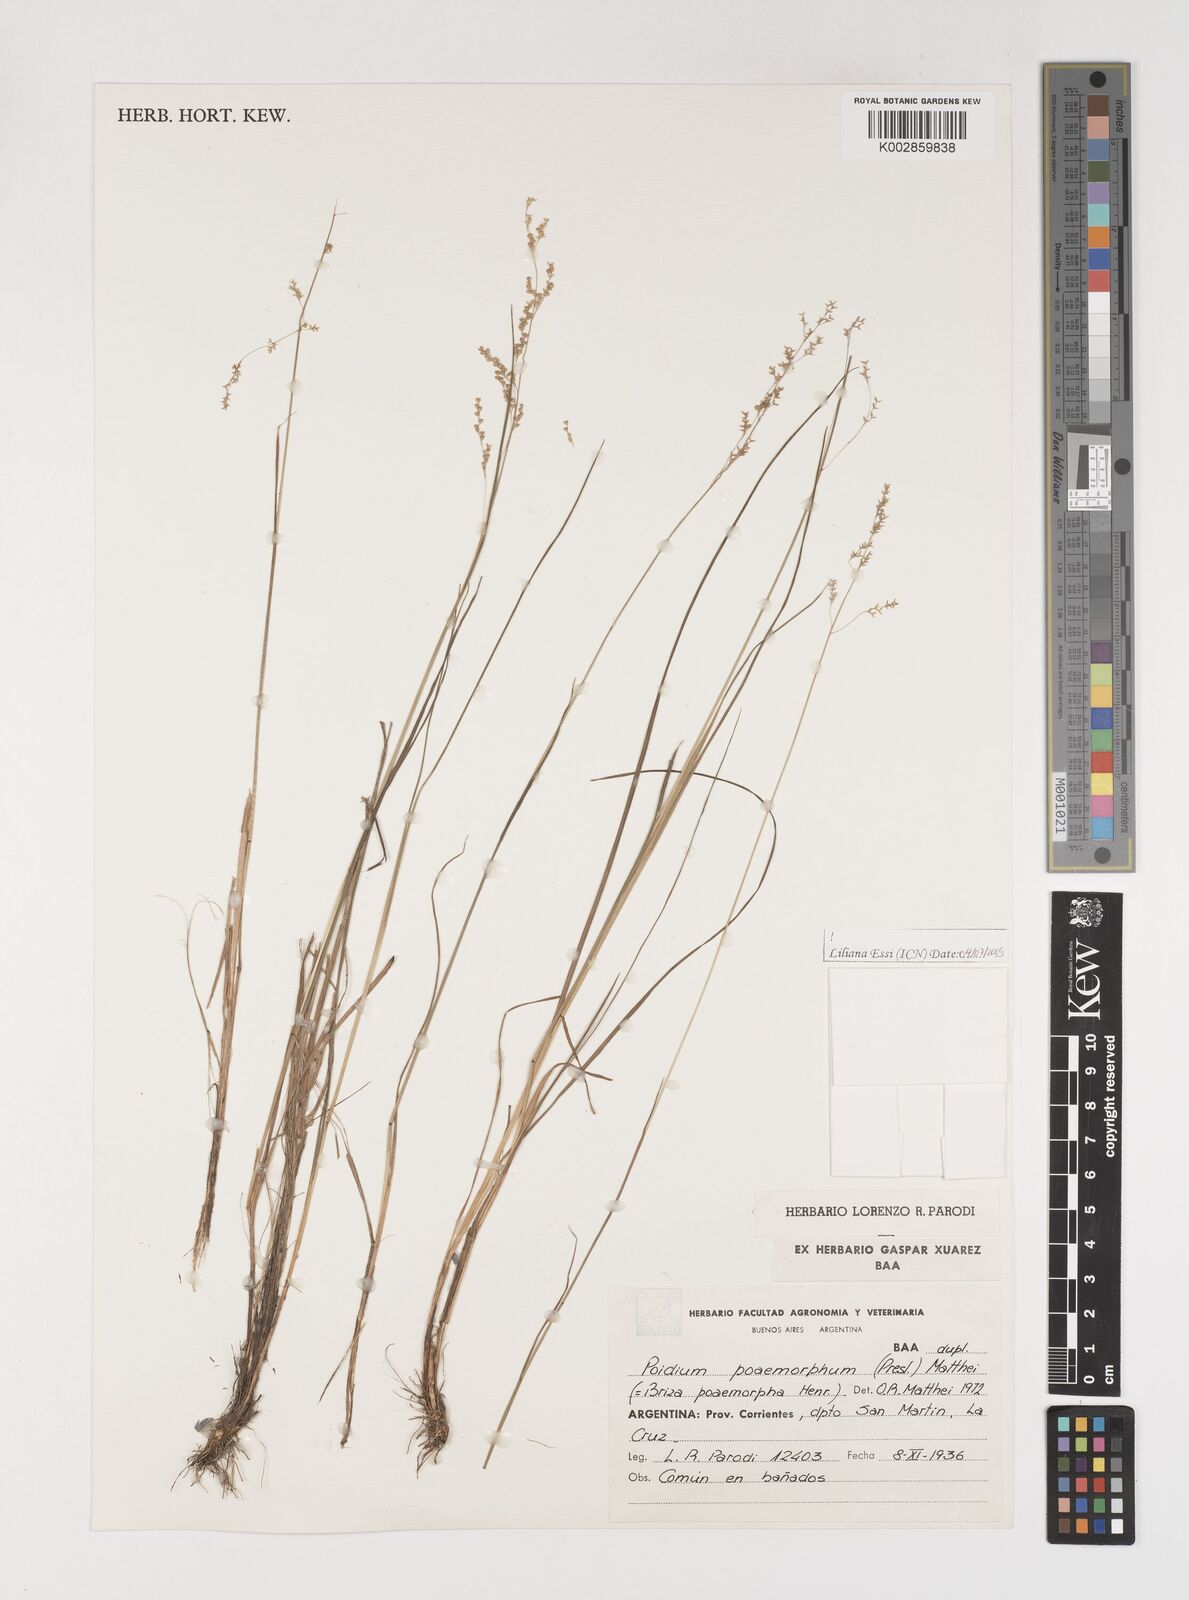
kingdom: Plantae
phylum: Tracheophyta
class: Liliopsida
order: Poales
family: Poaceae
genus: Microbriza
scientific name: Microbriza poimorpha
